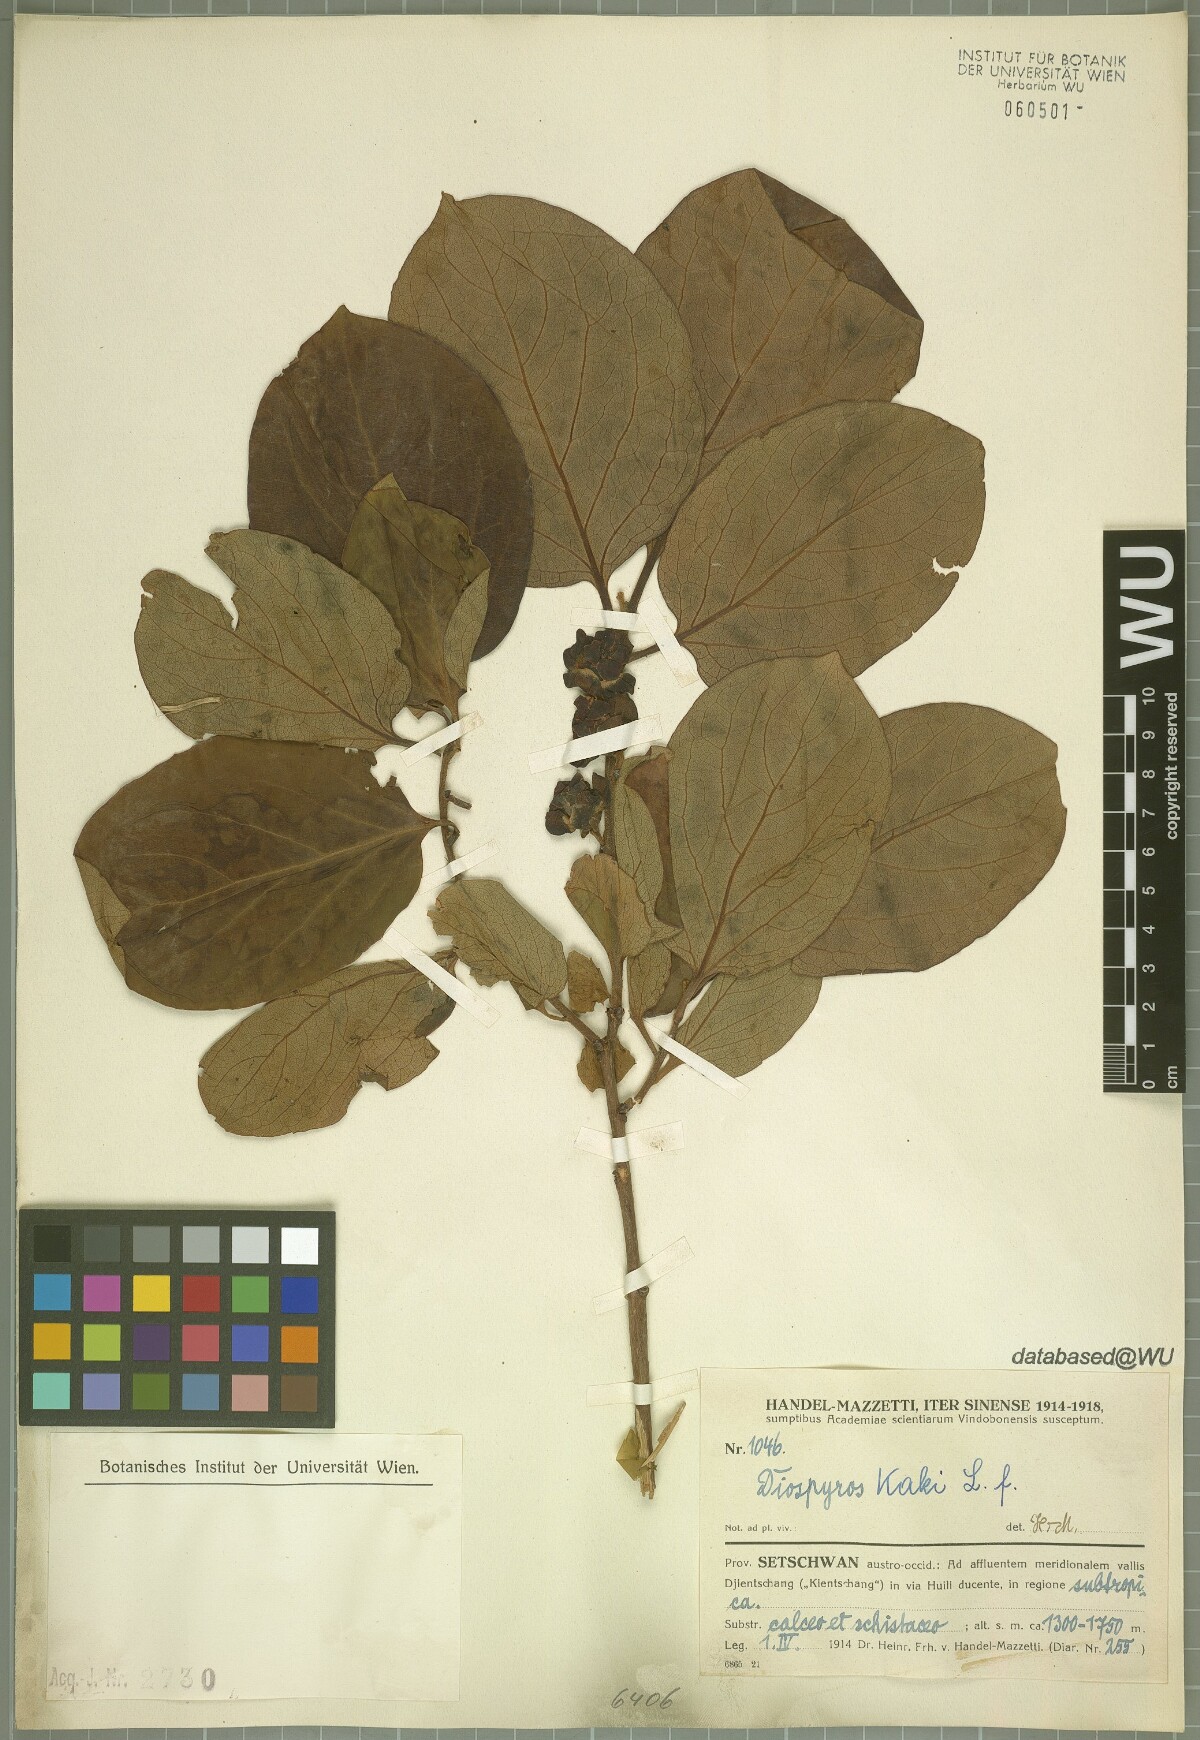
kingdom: Plantae
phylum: Tracheophyta
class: Magnoliopsida
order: Ericales
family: Ebenaceae
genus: Diospyros
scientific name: Diospyros kaki
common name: Persimmon
